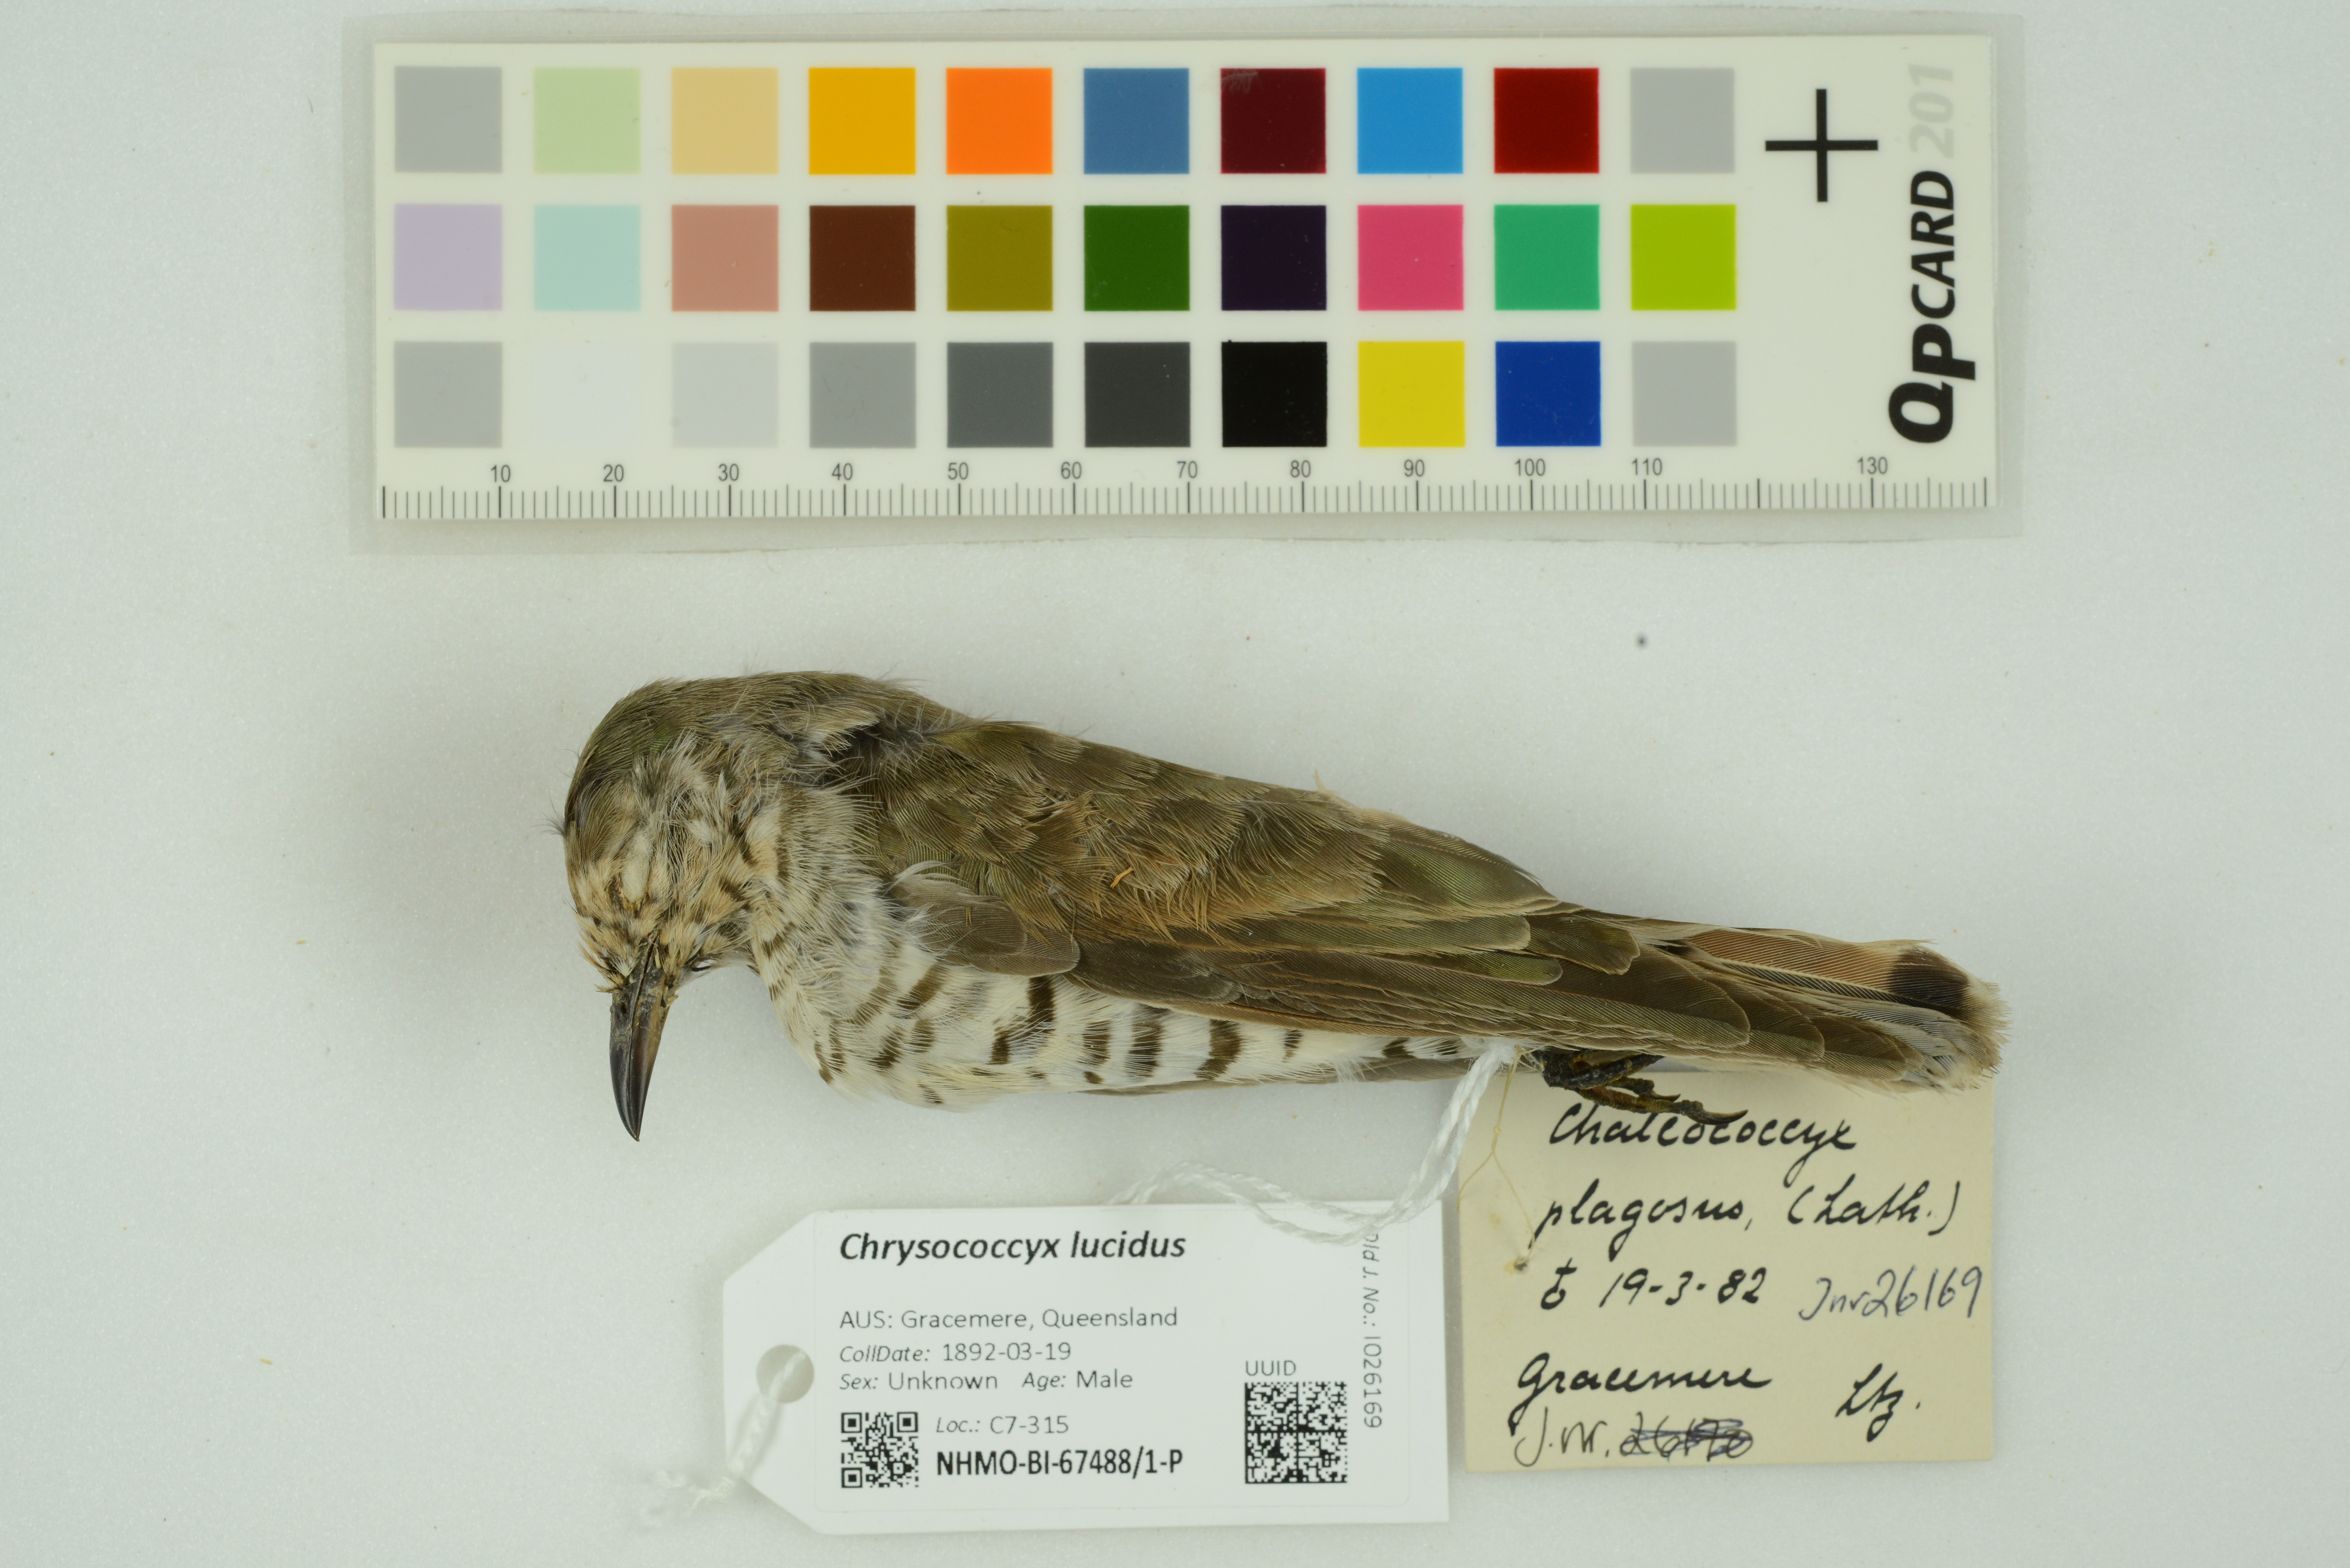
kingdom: Animalia
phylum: Chordata
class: Aves
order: Cuculiformes
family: Cuculidae
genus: Chrysococcyx
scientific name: Chrysococcyx lucidus
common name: Shining bronze cuckoo
